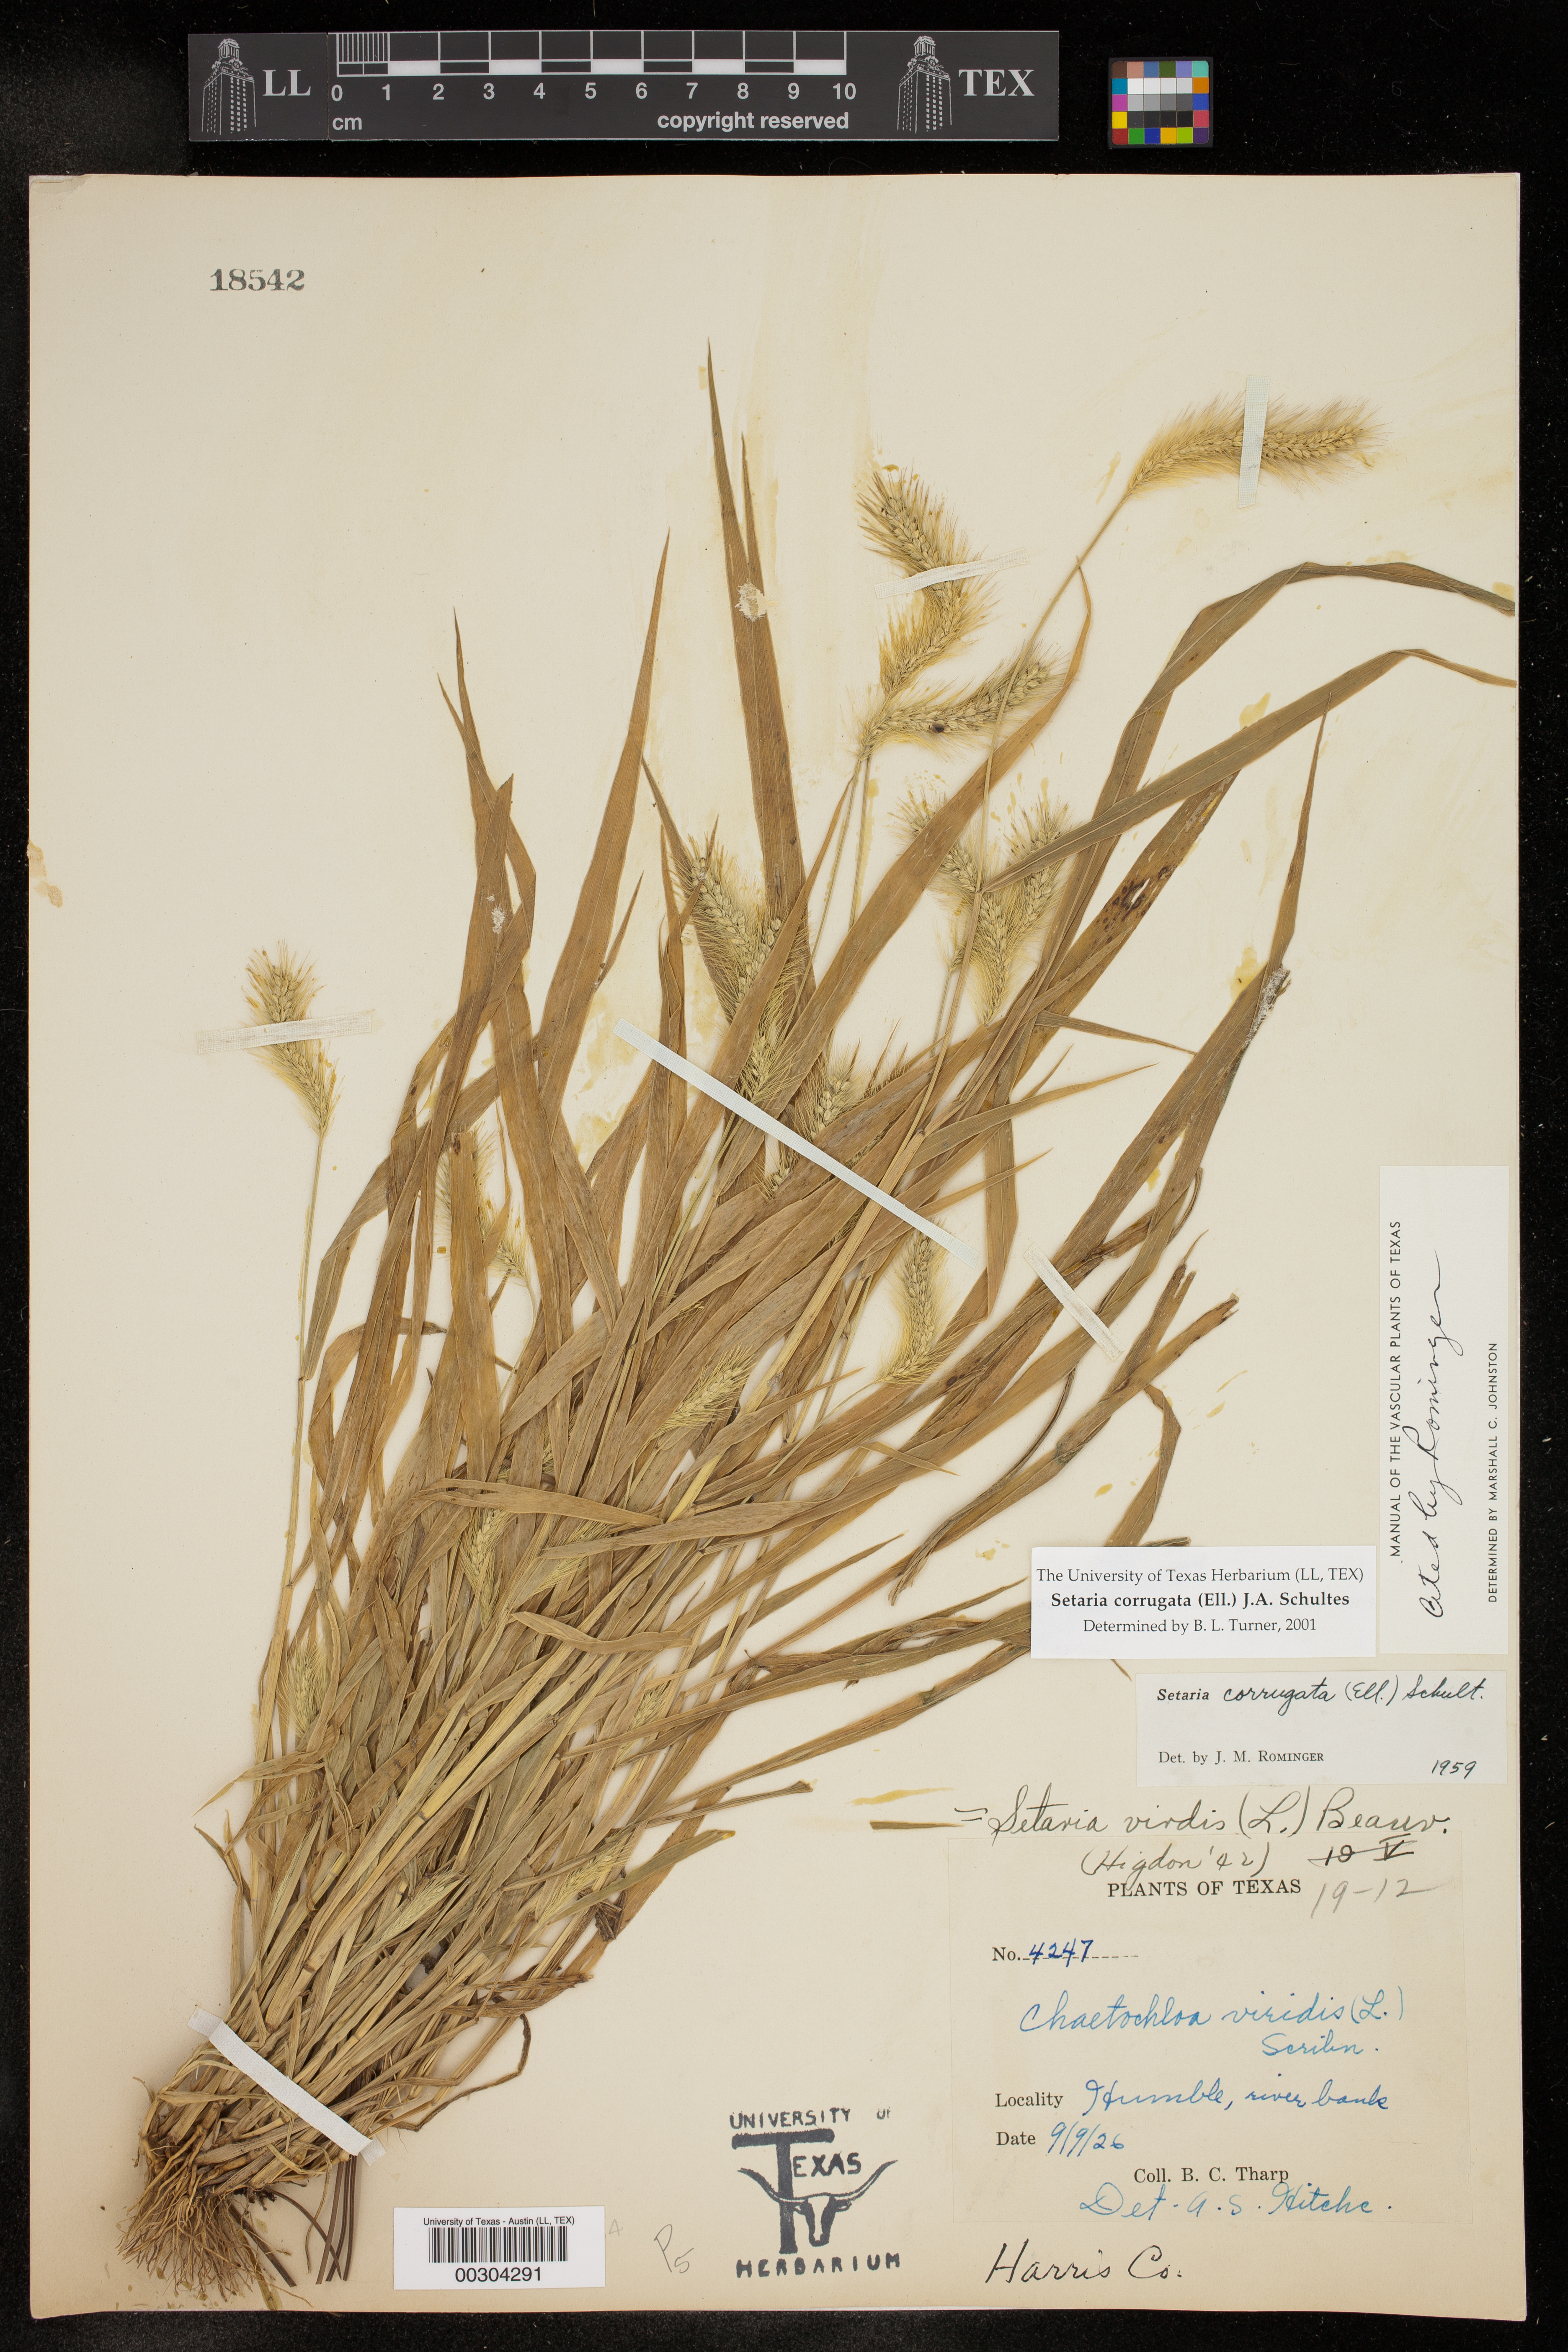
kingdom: Plantae
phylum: Tracheophyta
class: Liliopsida
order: Poales
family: Poaceae
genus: Setaria
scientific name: Setaria corrugata
